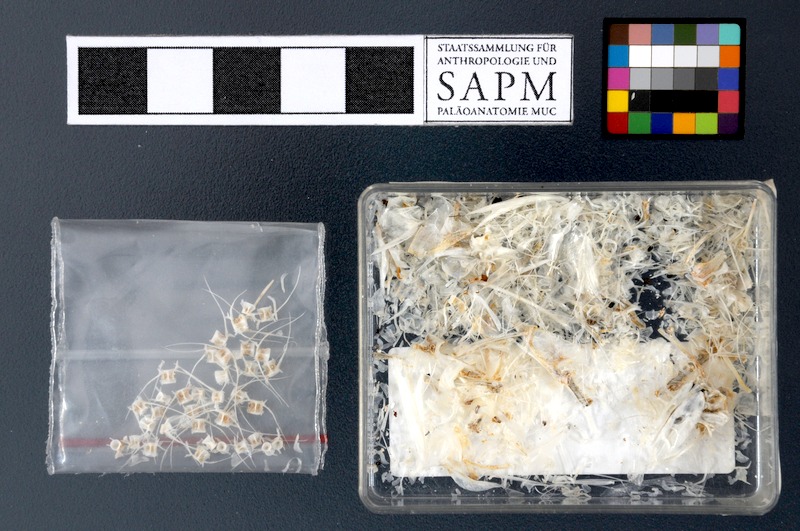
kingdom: Animalia
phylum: Chordata
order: Clupeiformes
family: Engraulidae
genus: Stolephorus
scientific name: Stolephorus
